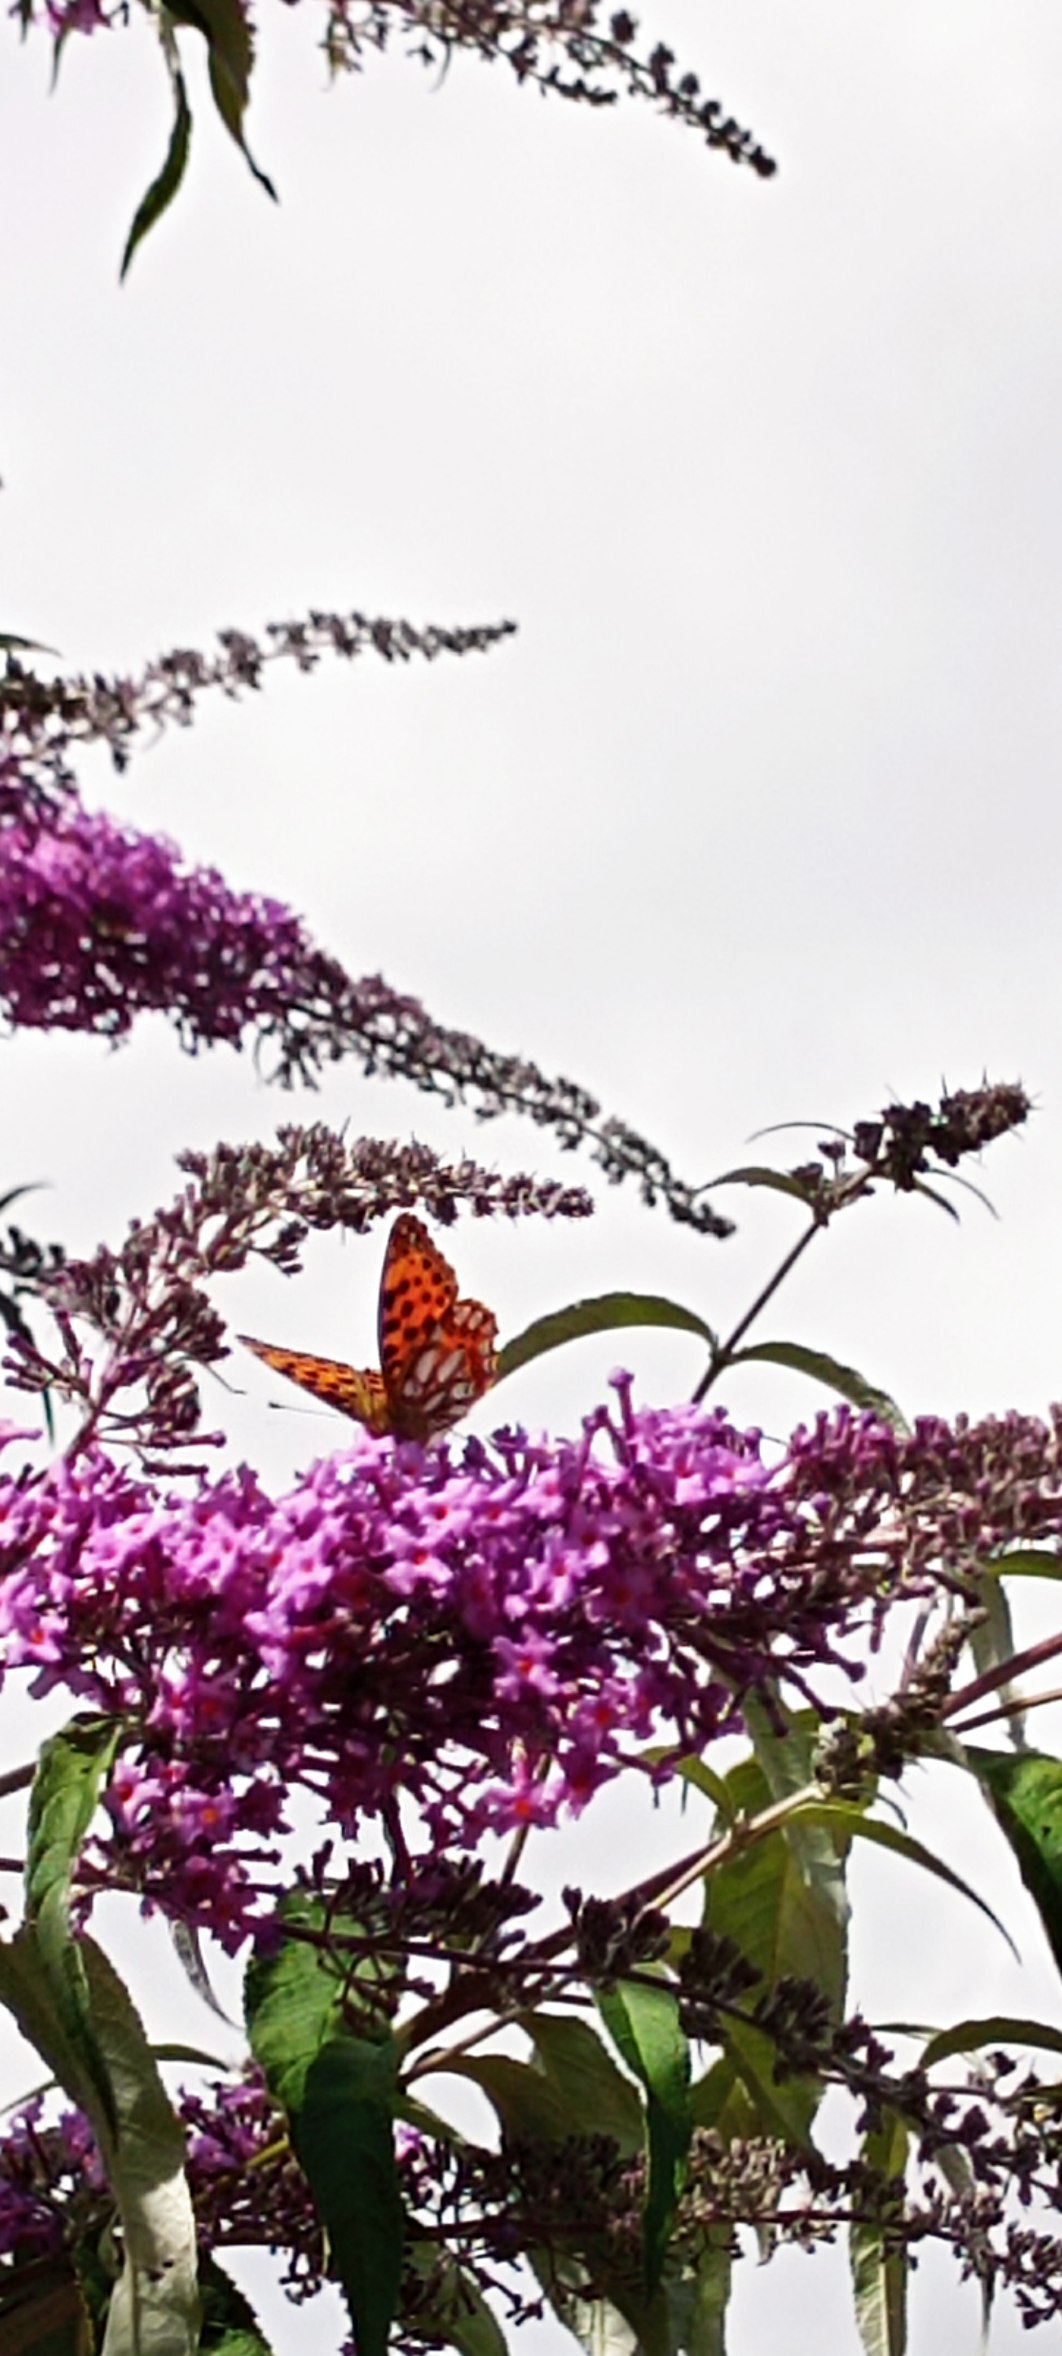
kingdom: Animalia
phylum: Arthropoda
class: Insecta
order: Lepidoptera
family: Nymphalidae
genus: Issoria
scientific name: Issoria lathonia
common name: Storplettet perlemorsommerfugl
